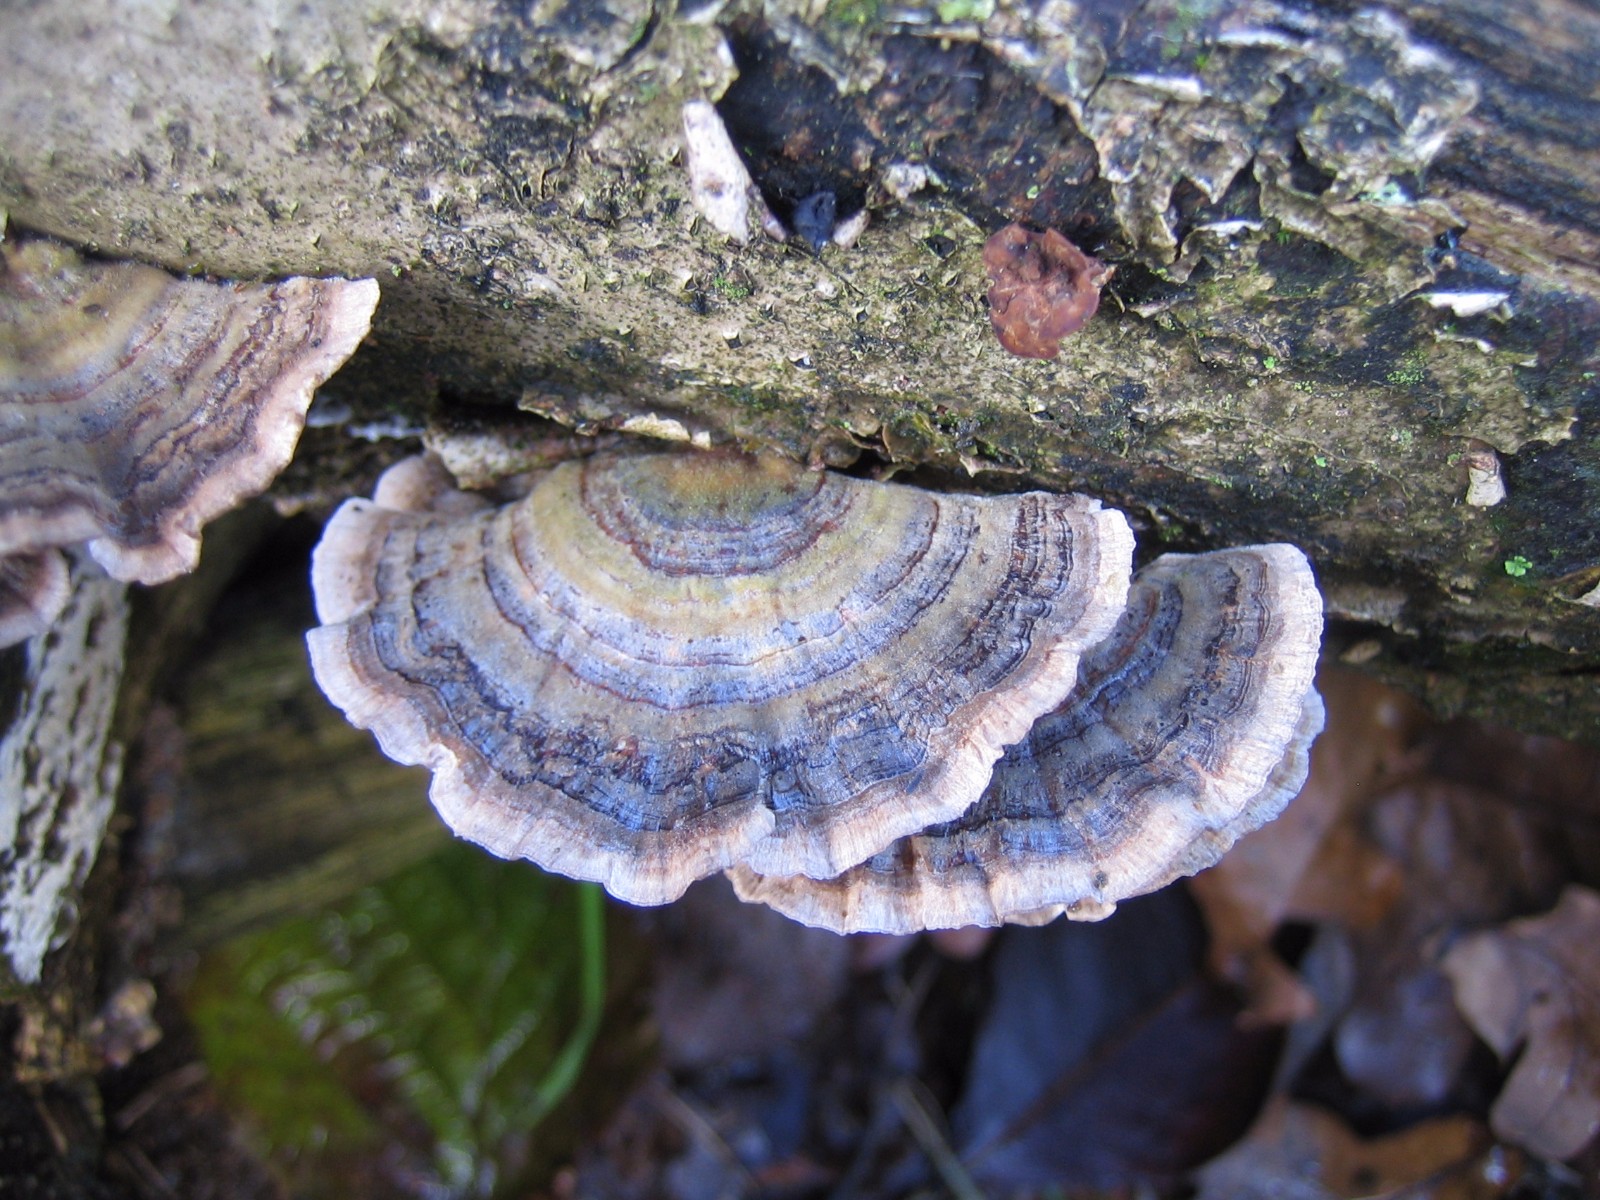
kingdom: Fungi
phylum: Basidiomycota
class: Agaricomycetes
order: Polyporales
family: Polyporaceae
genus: Trametes
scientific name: Trametes versicolor
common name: broget læderporesvamp
